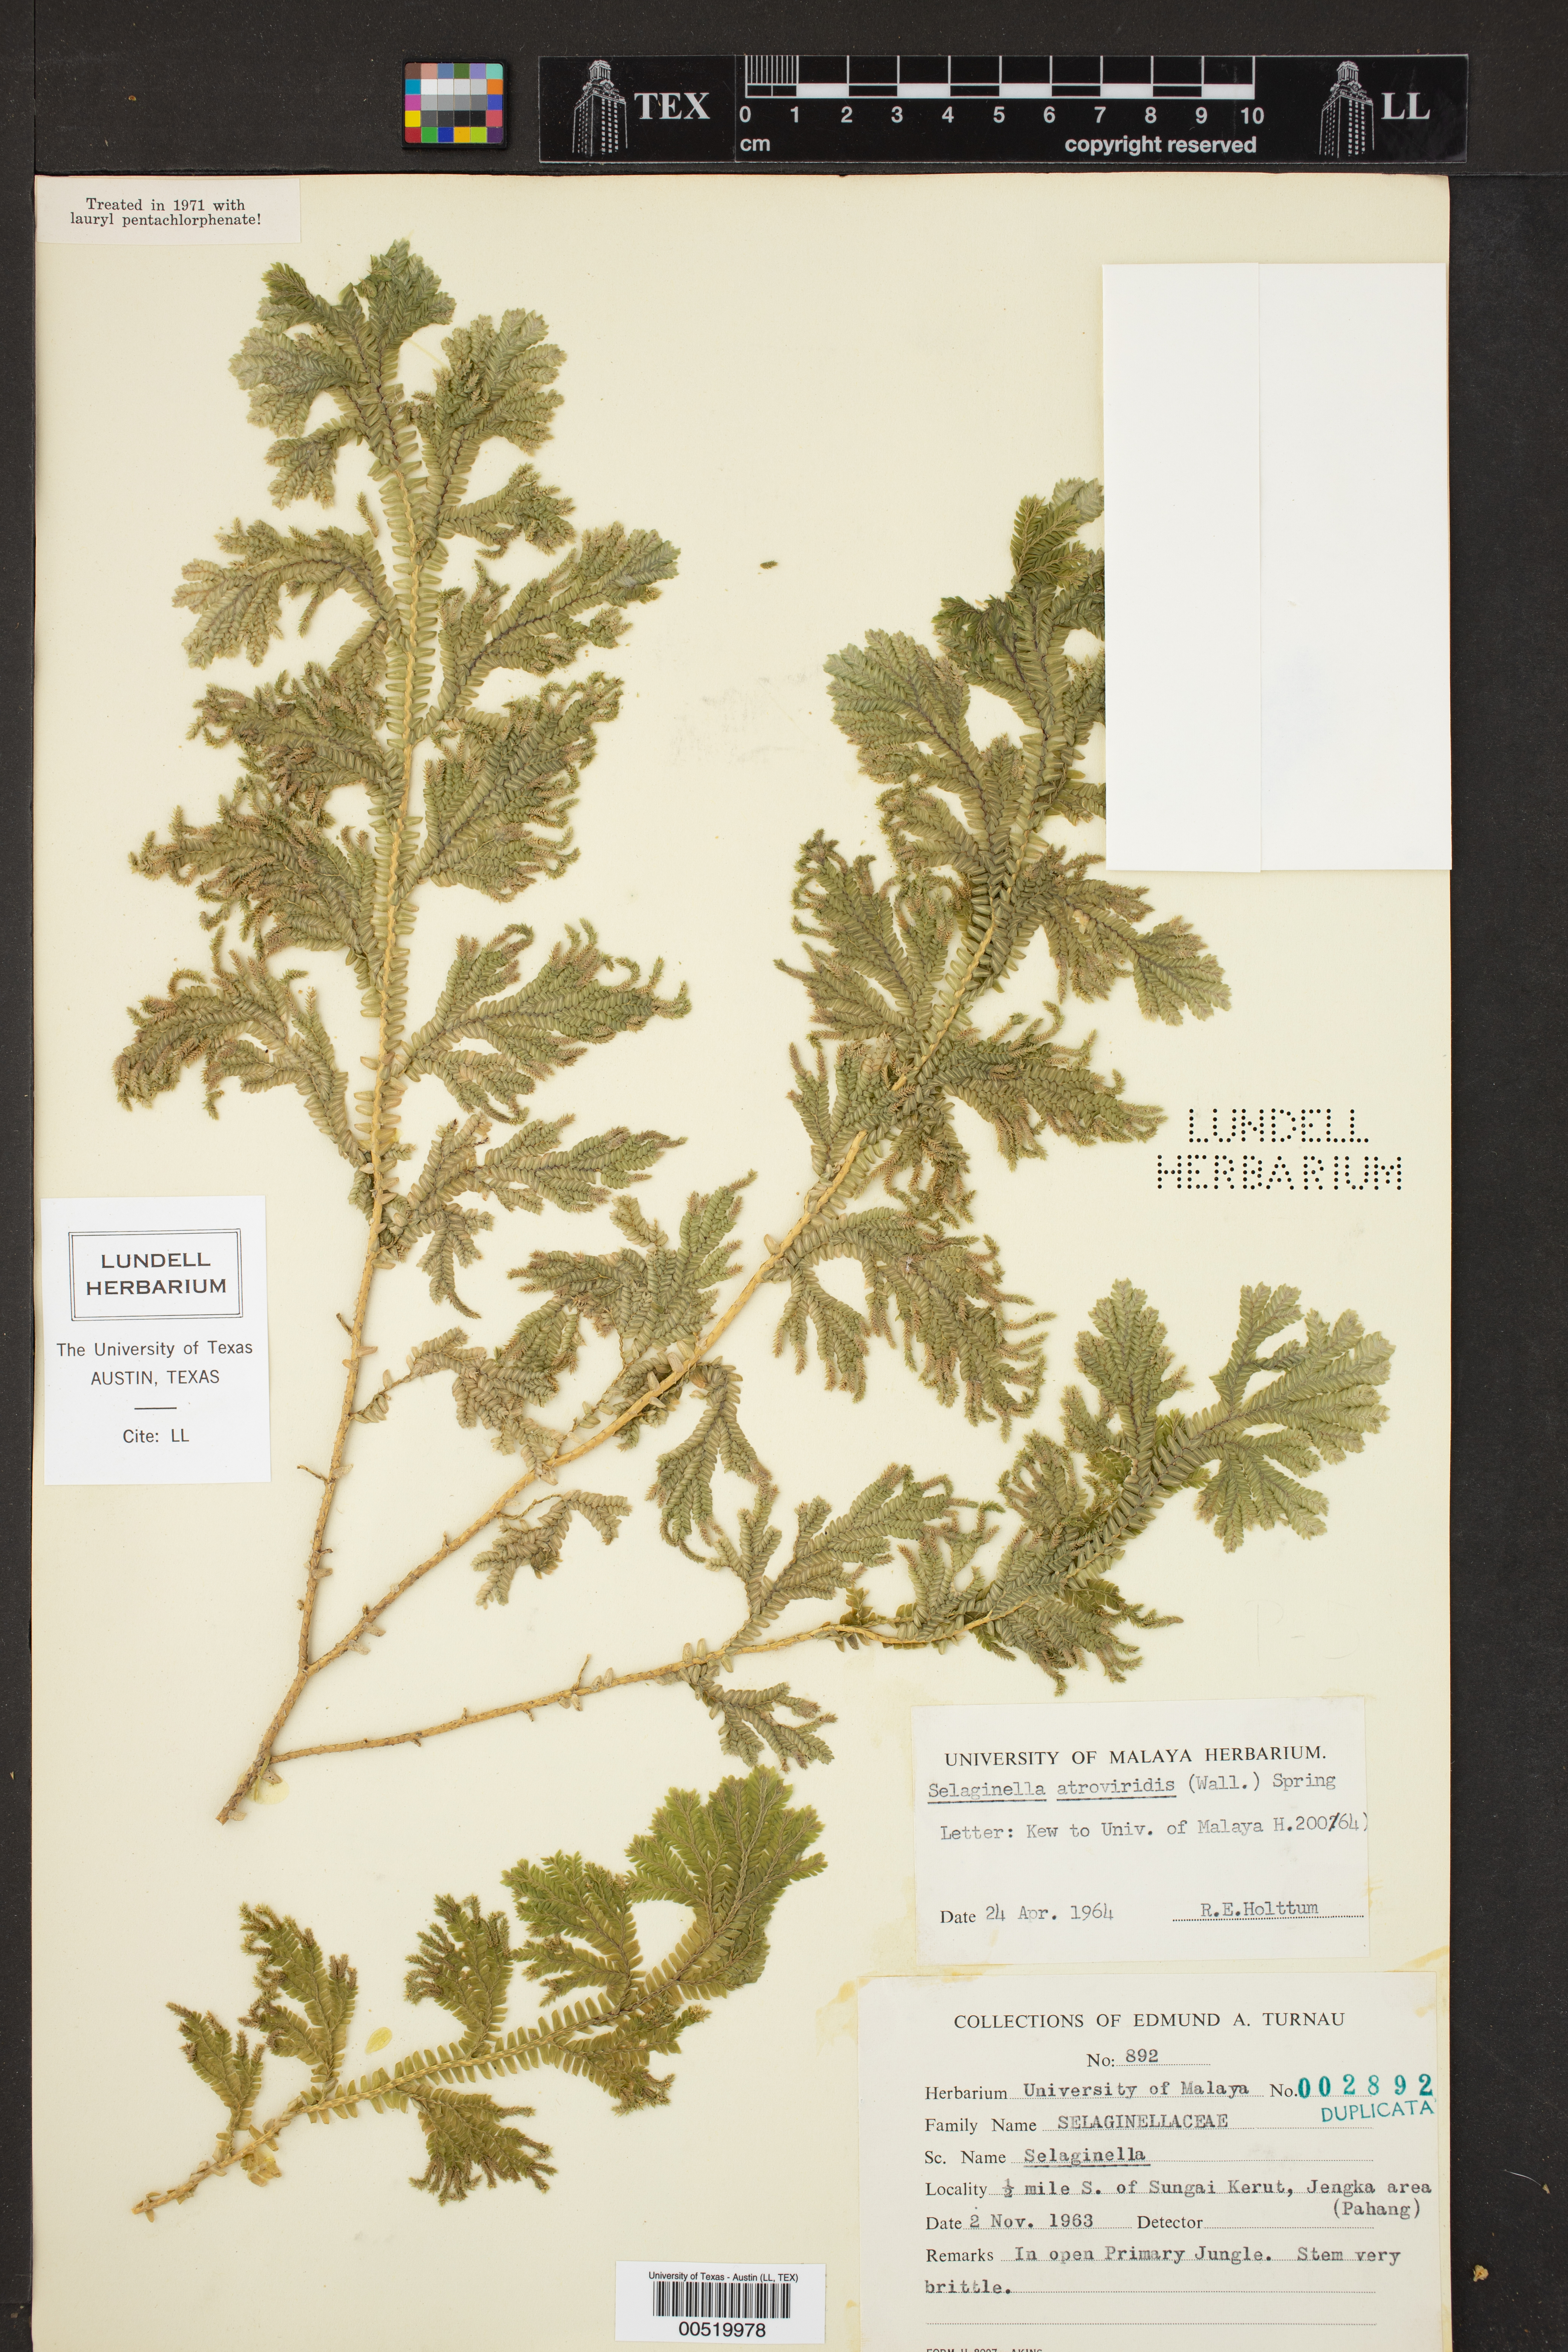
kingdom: Plantae
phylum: Tracheophyta
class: Lycopodiopsida
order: Selaginellales
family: Selaginellaceae
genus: Selaginella
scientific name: Selaginella intermedia
